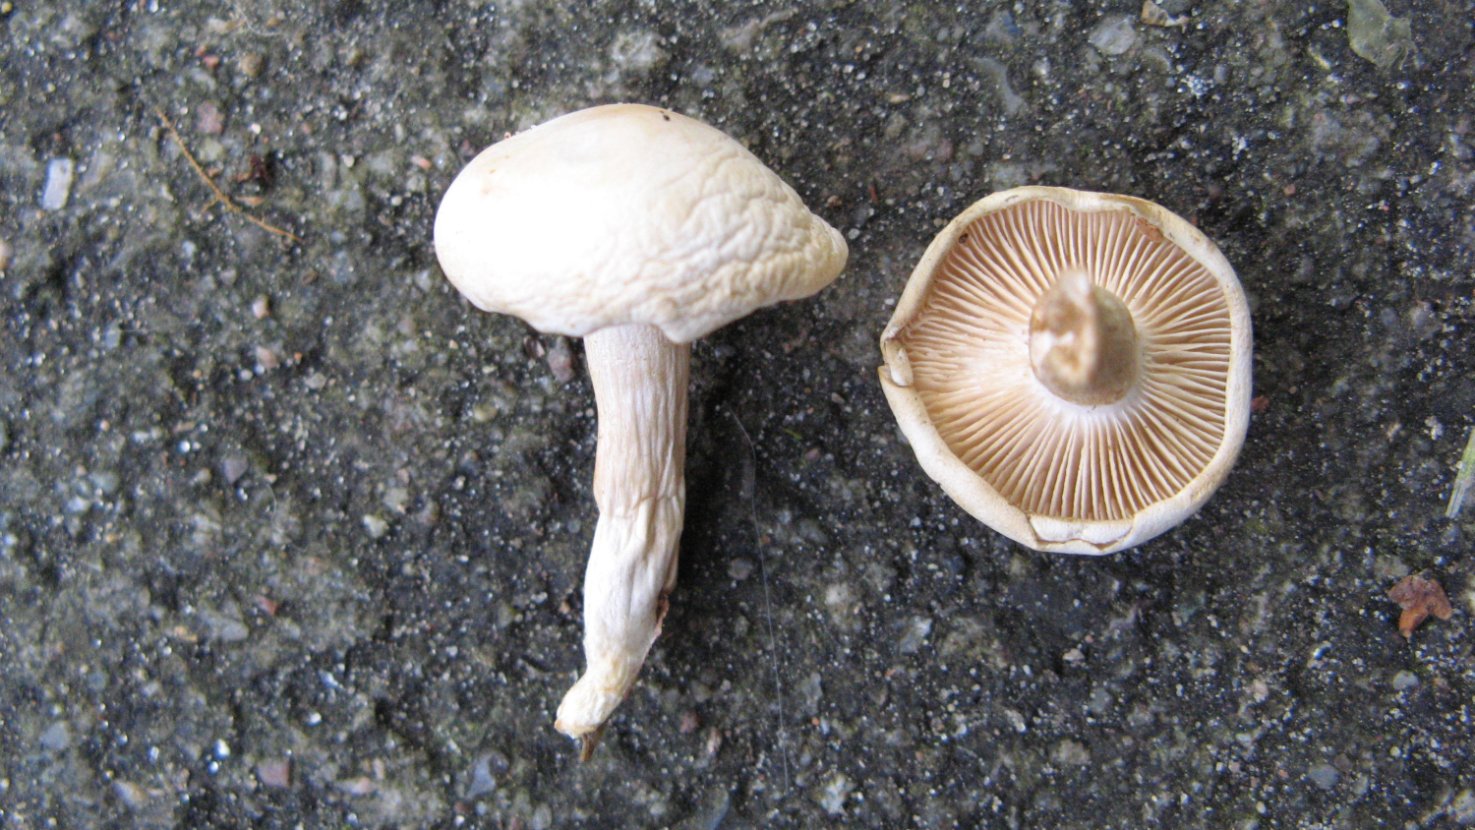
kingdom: Fungi
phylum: Basidiomycota
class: Agaricomycetes
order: Agaricales
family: Tricholomataceae
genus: Leucocybe
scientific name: Leucocybe candicans
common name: kridt-tragthat
